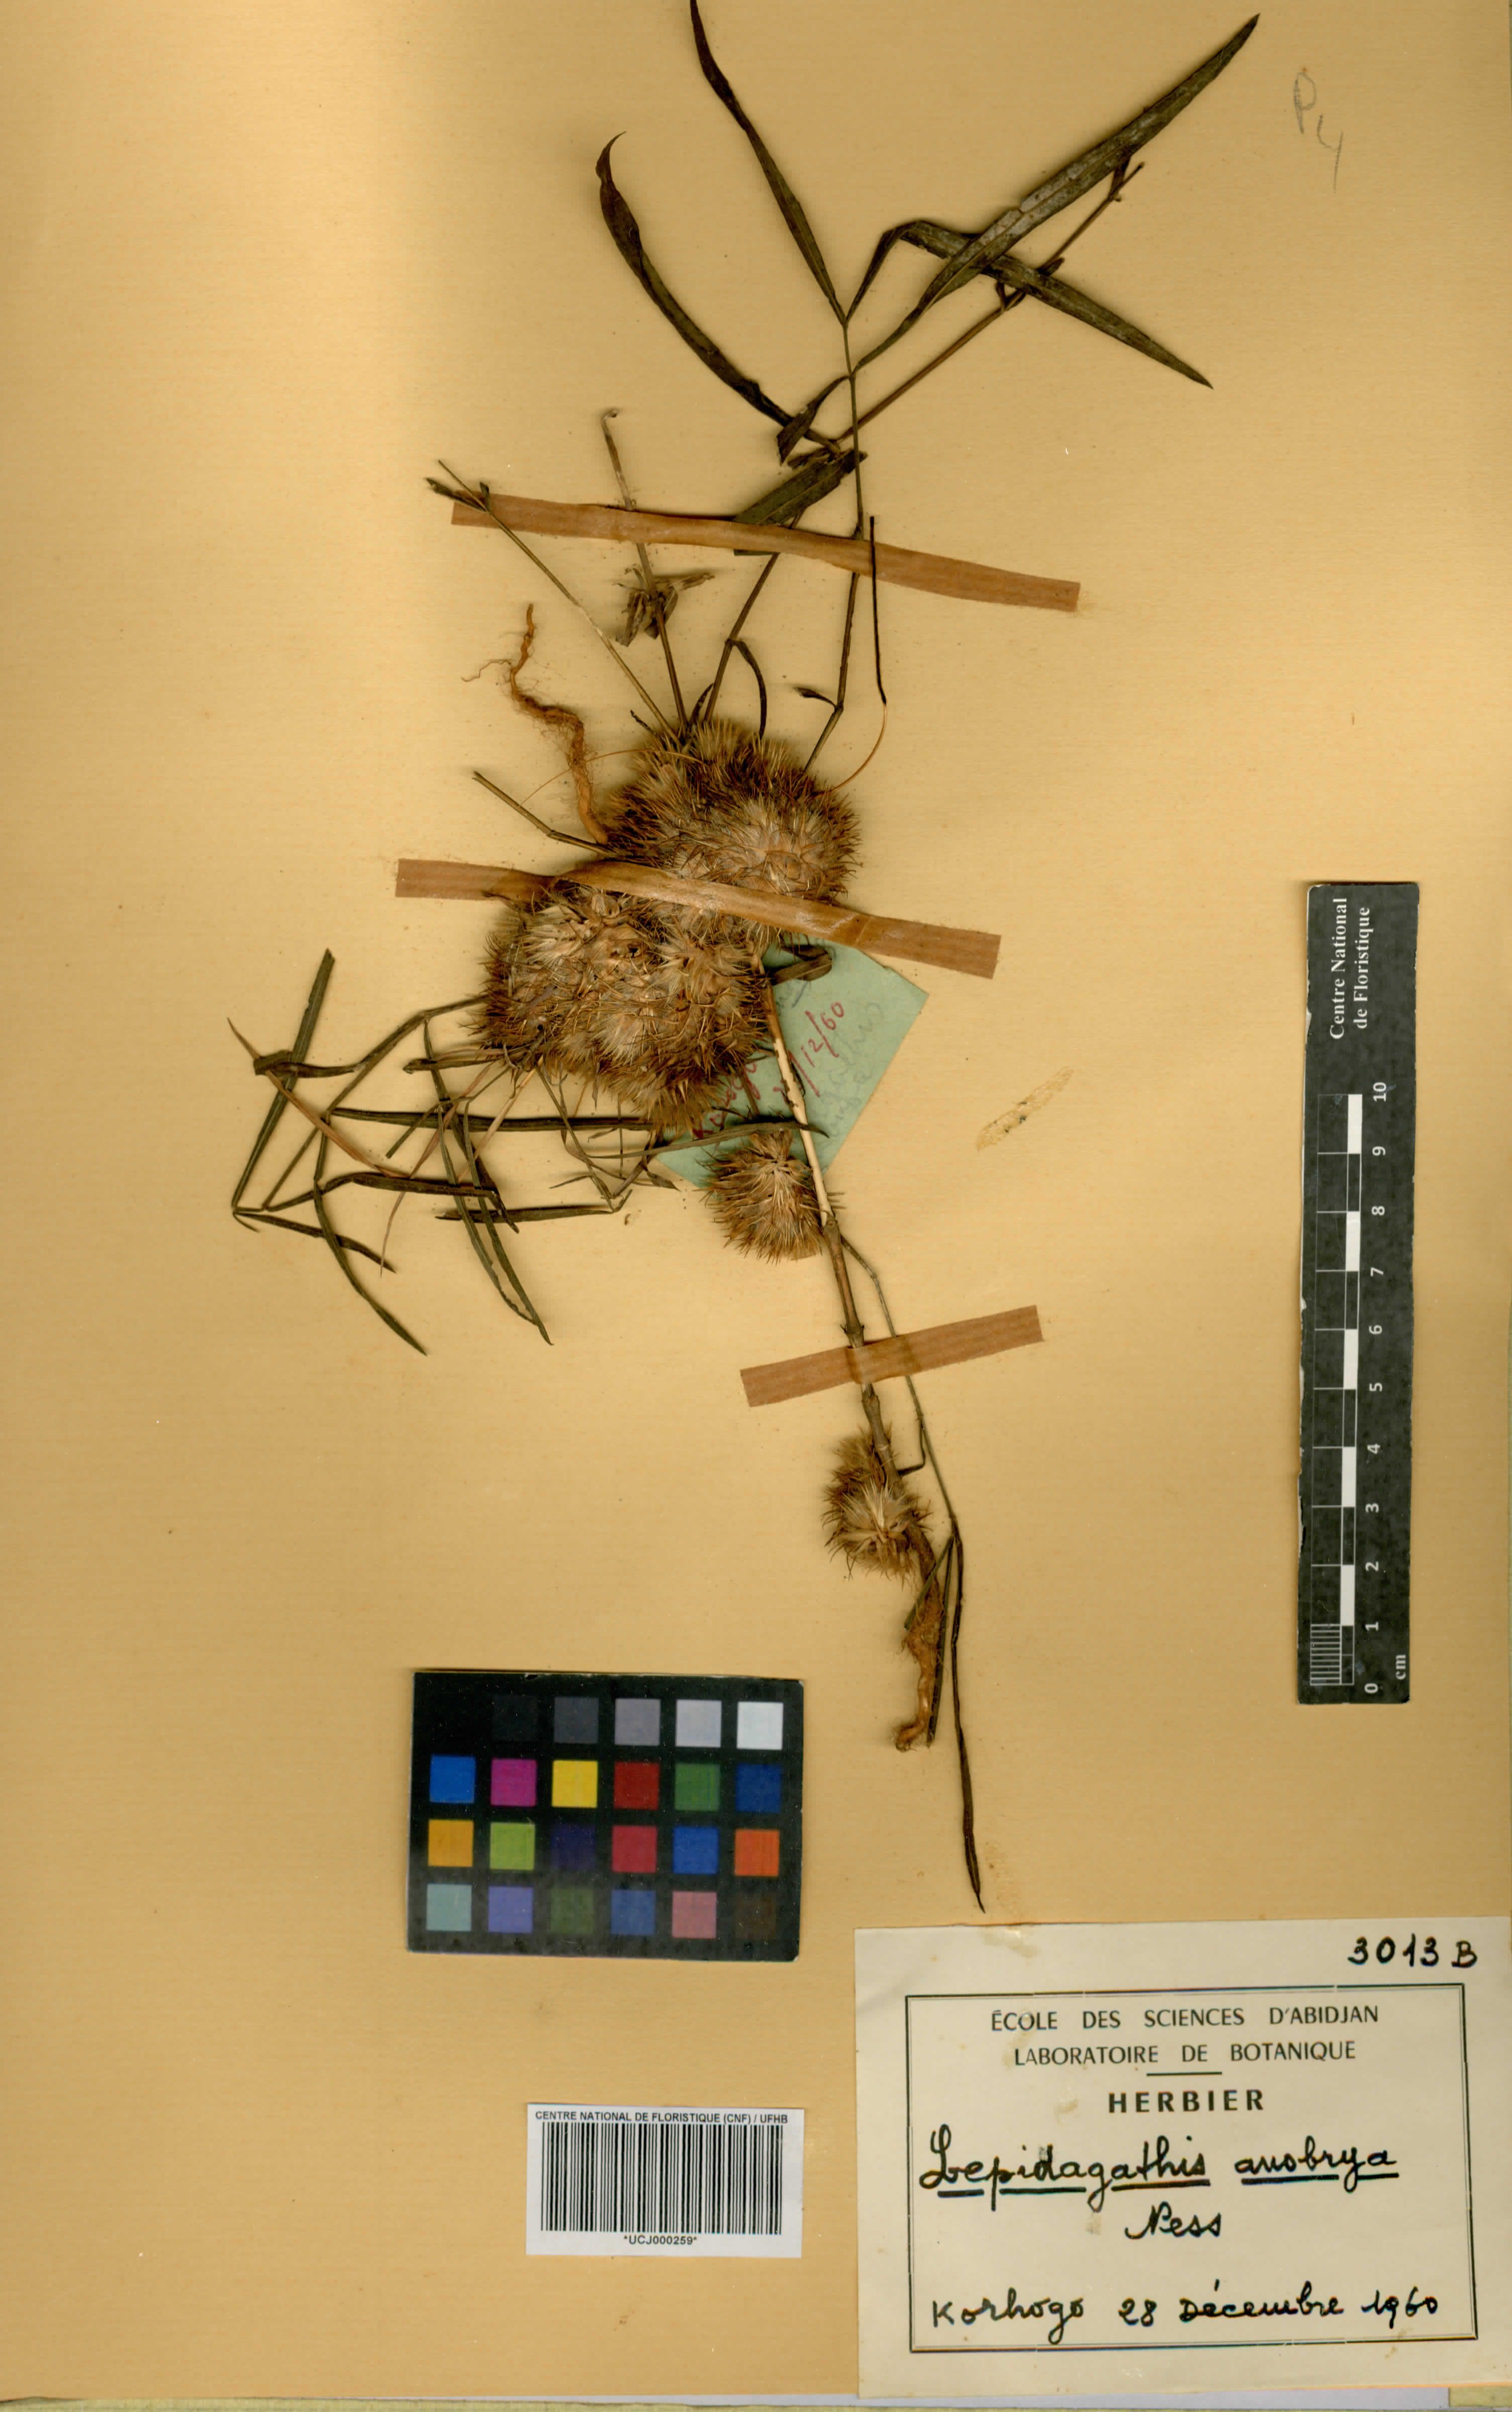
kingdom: Plantae
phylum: Tracheophyta
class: Magnoliopsida
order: Lamiales
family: Acanthaceae
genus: Lepidagathis
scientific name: Lepidagathis anobrya
